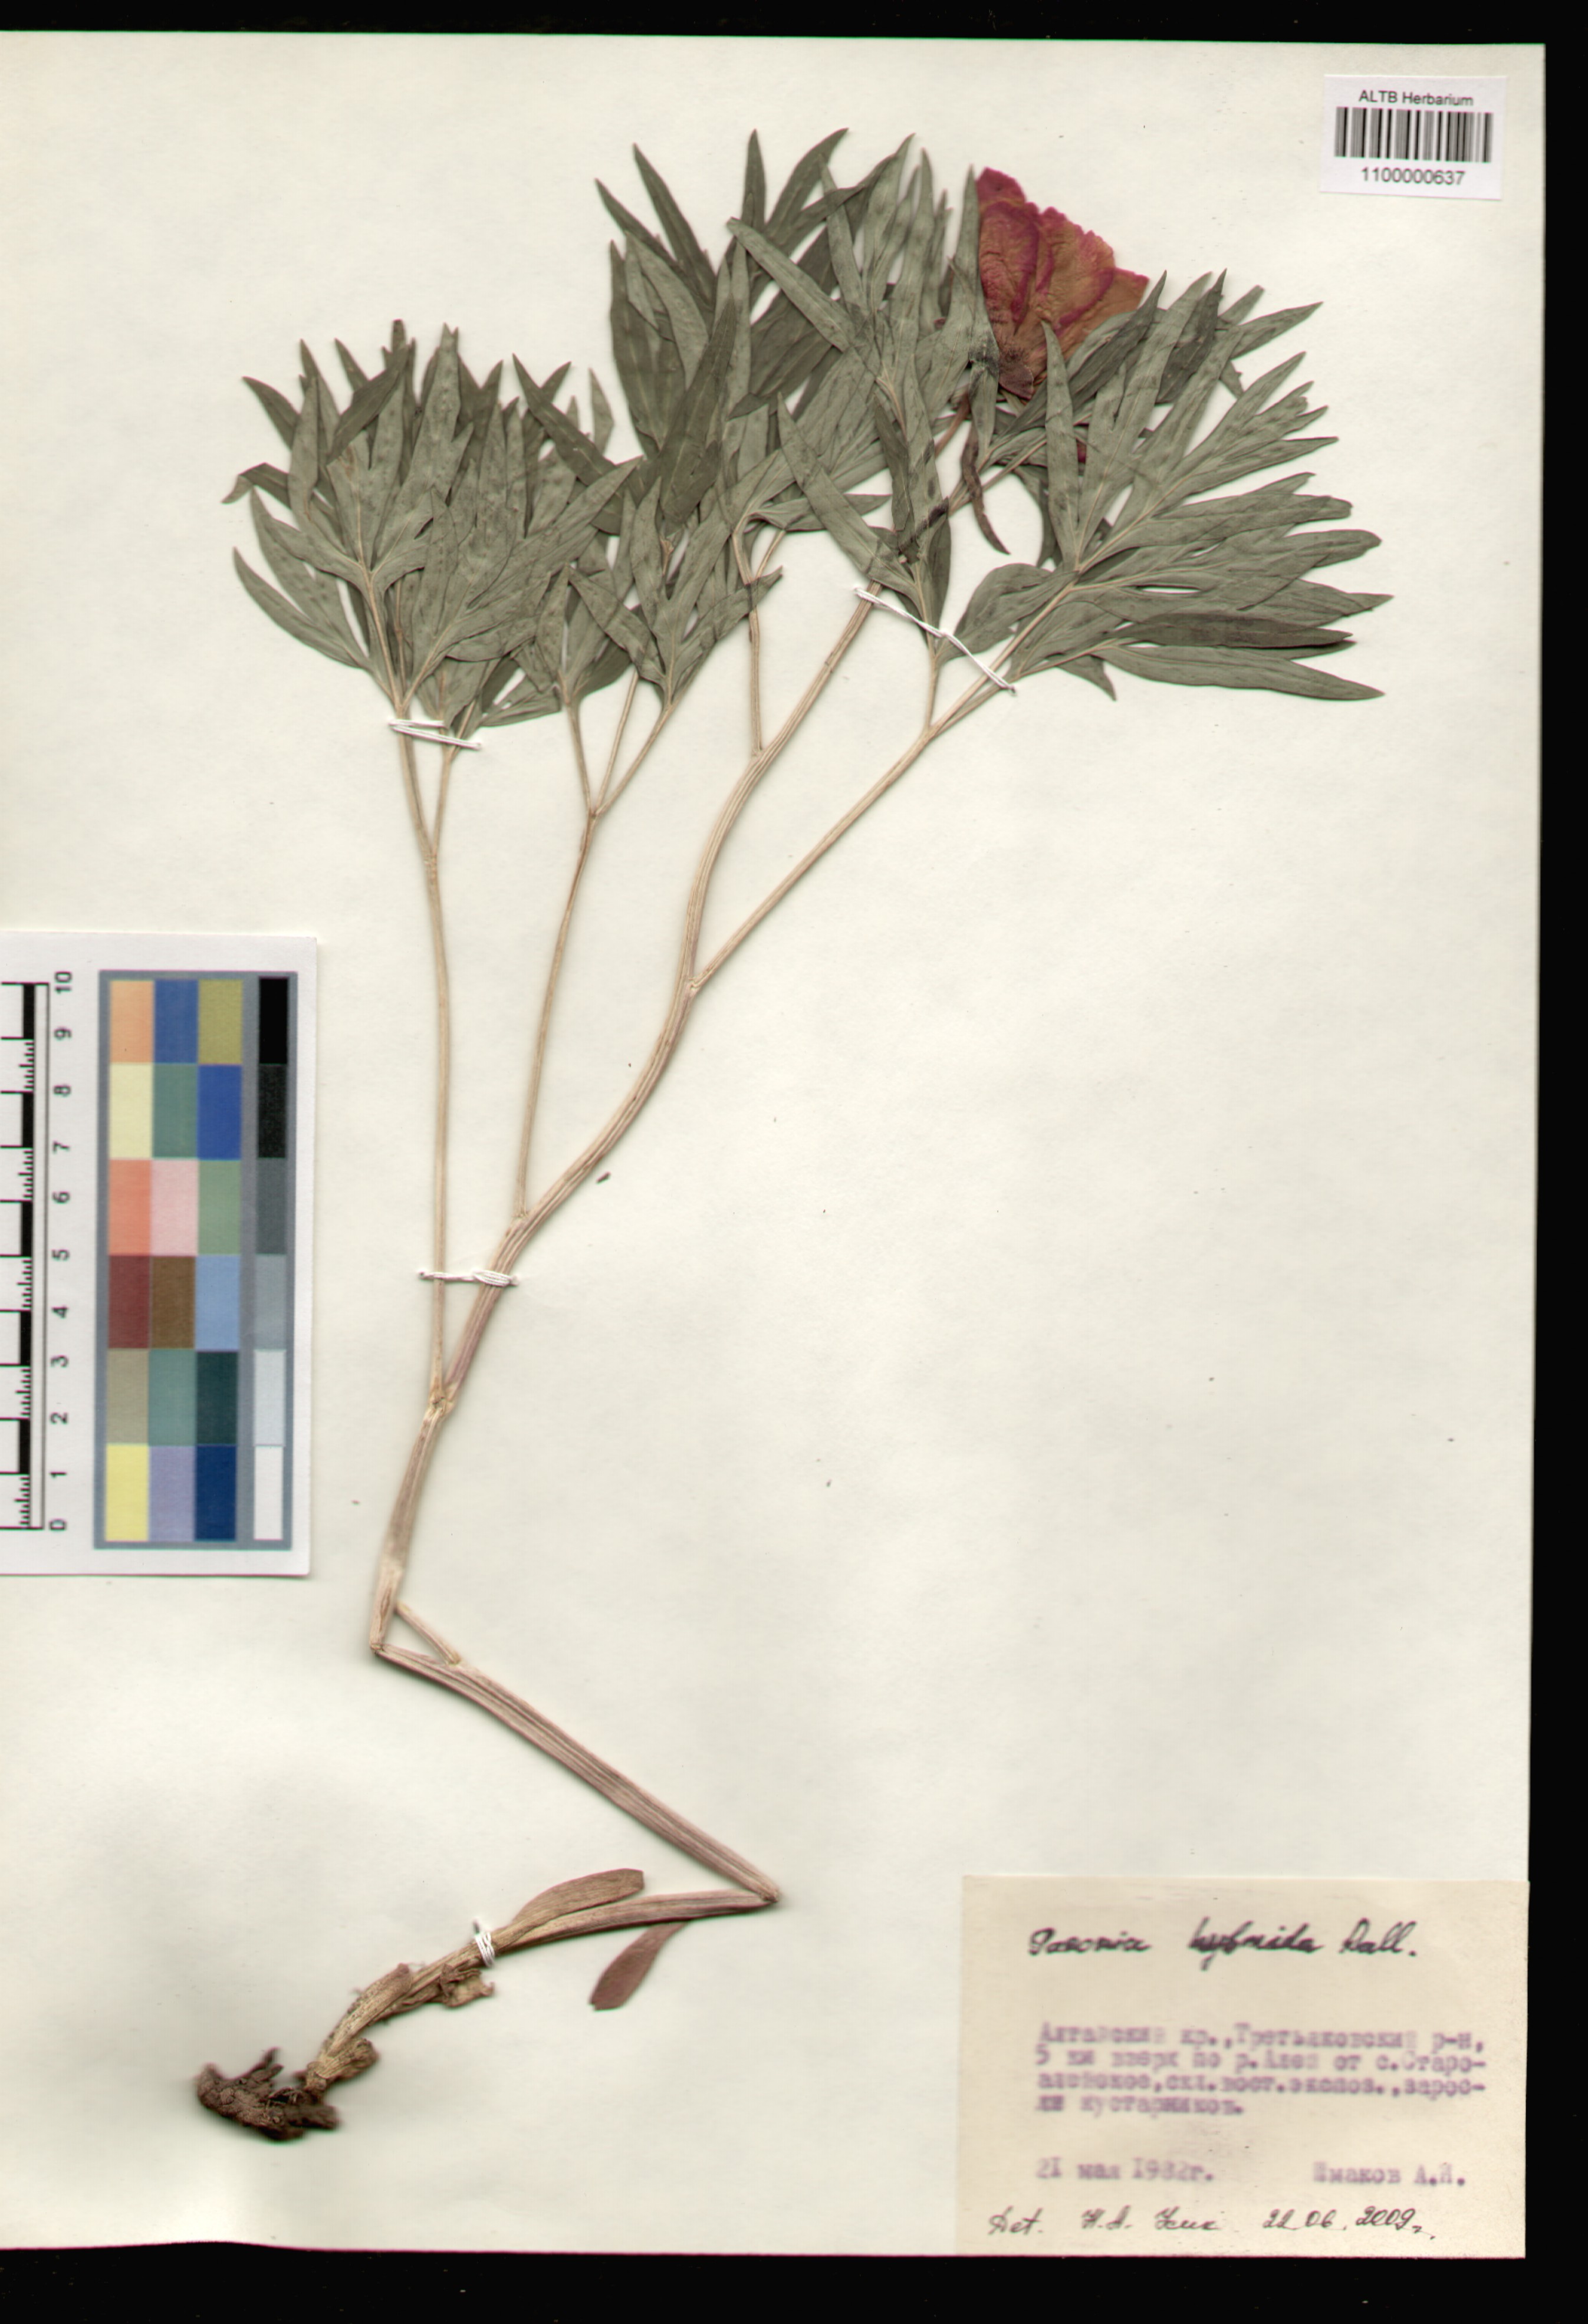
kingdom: Plantae
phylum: Tracheophyta
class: Magnoliopsida
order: Saxifragales
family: Paeoniaceae
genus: Paeonia
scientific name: Paeonia anomala
